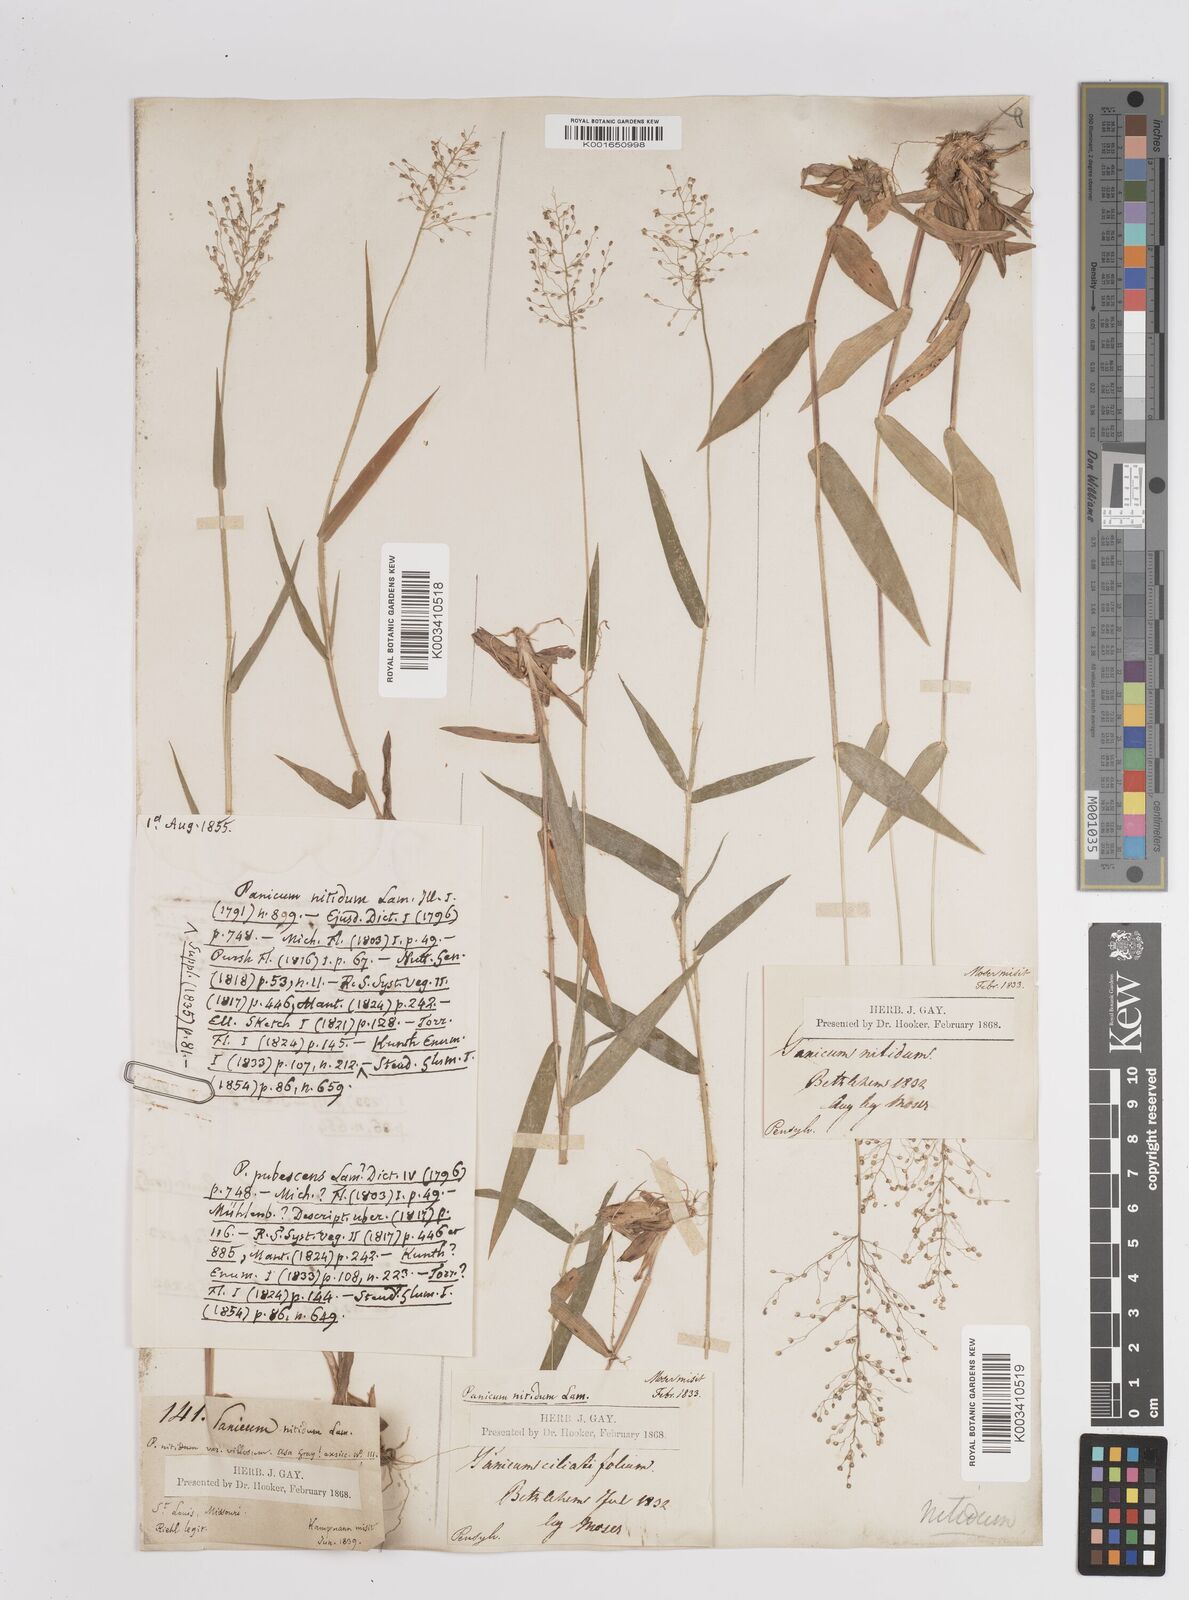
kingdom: Plantae
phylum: Tracheophyta
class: Liliopsida
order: Poales
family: Poaceae
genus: Dichanthelium
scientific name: Dichanthelium polyanthes
